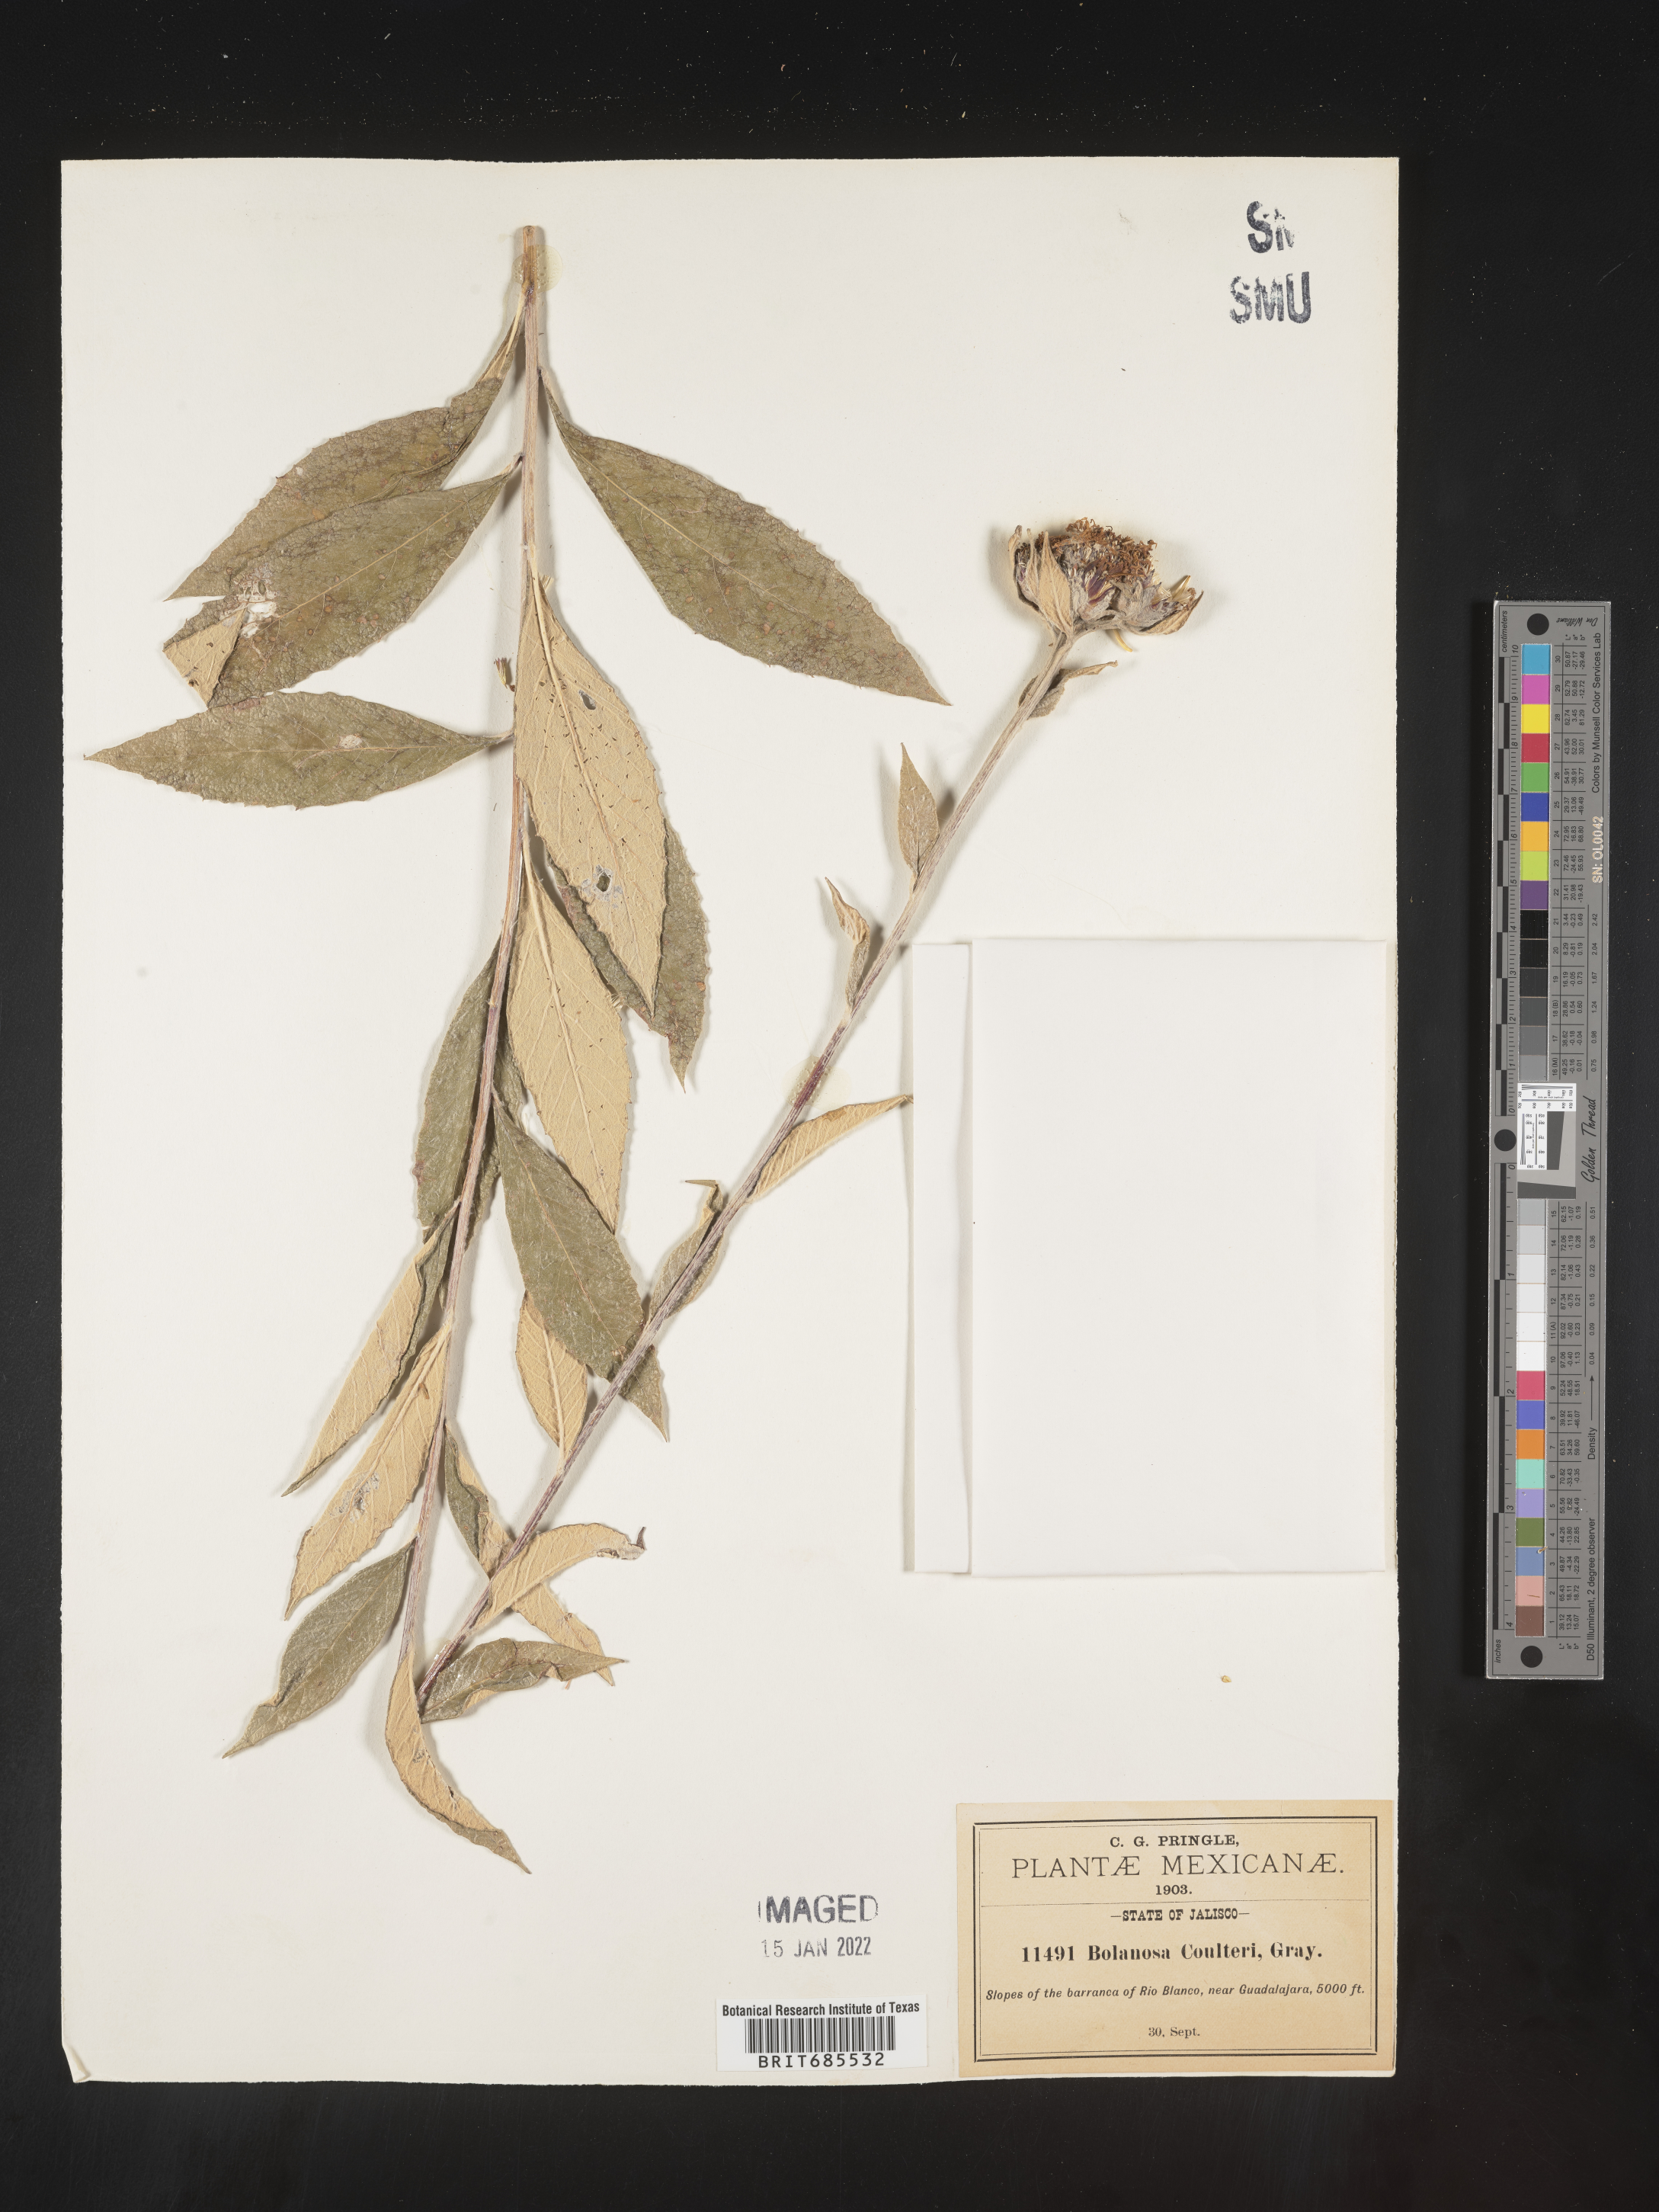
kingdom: Plantae
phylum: Tracheophyta
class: Magnoliopsida
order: Asterales
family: Asteraceae
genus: Bolanosa
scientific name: Bolanosa
